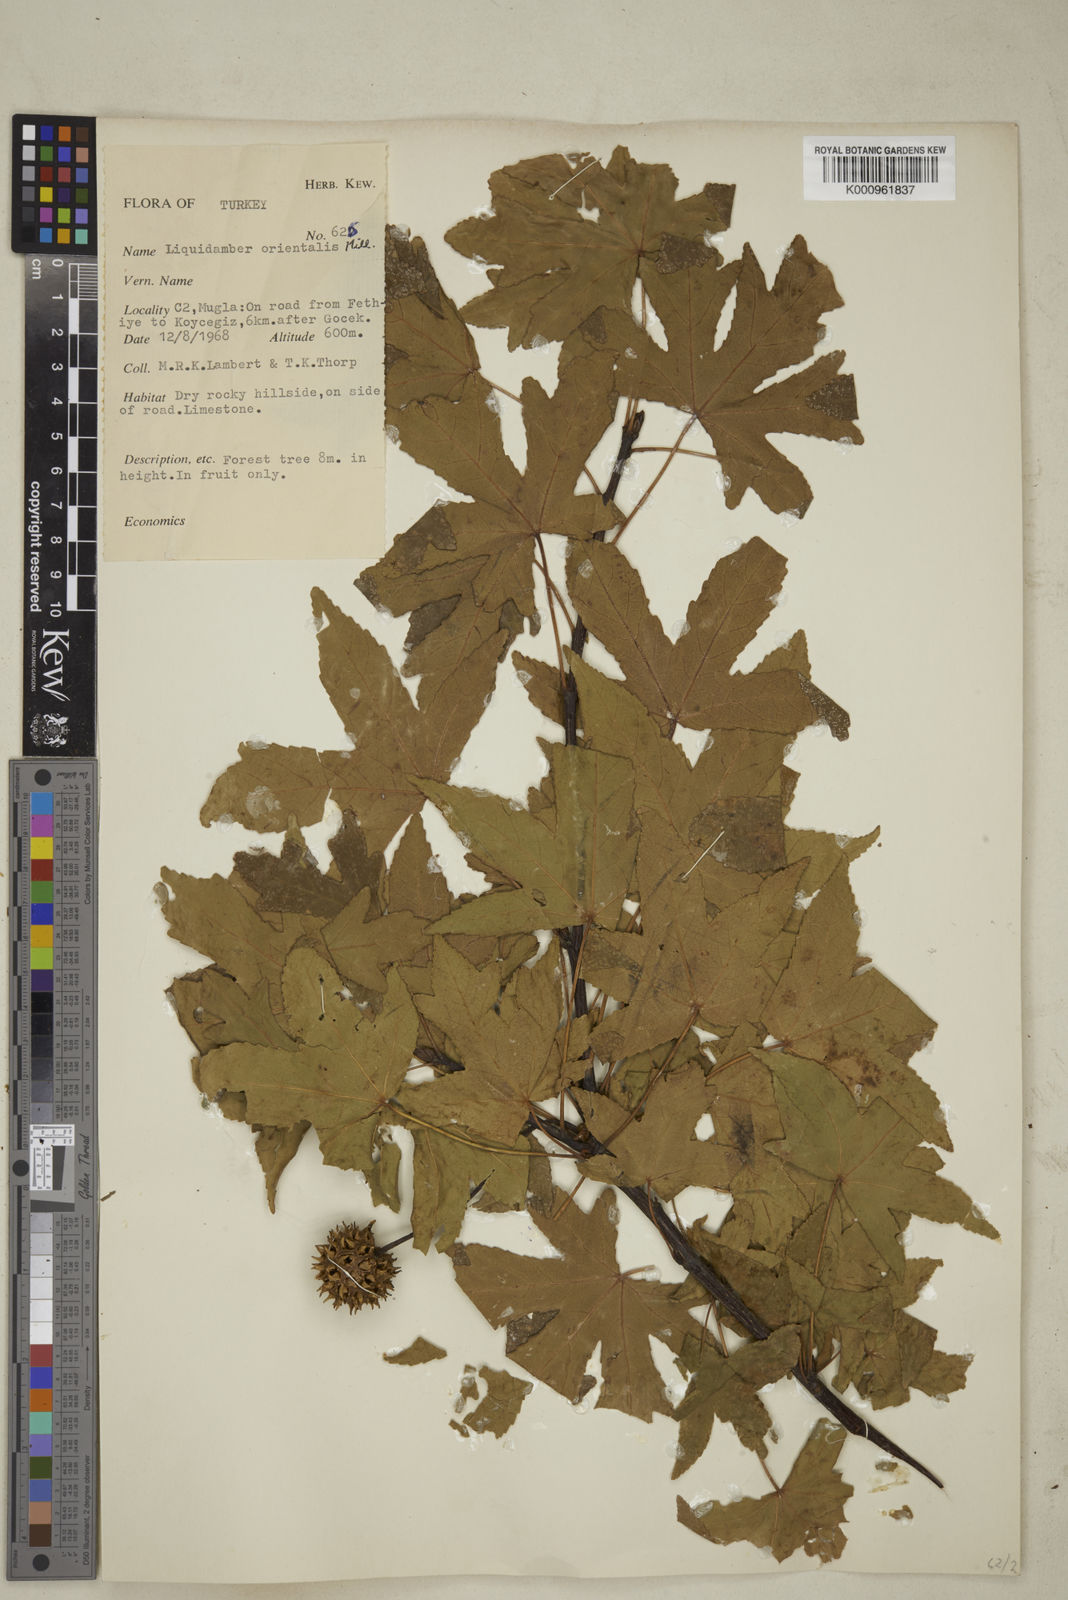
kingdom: Plantae
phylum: Tracheophyta
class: Magnoliopsida
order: Saxifragales
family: Altingiaceae
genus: Liquidambar
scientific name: Liquidambar orientalis
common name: Oriental sweetgum
